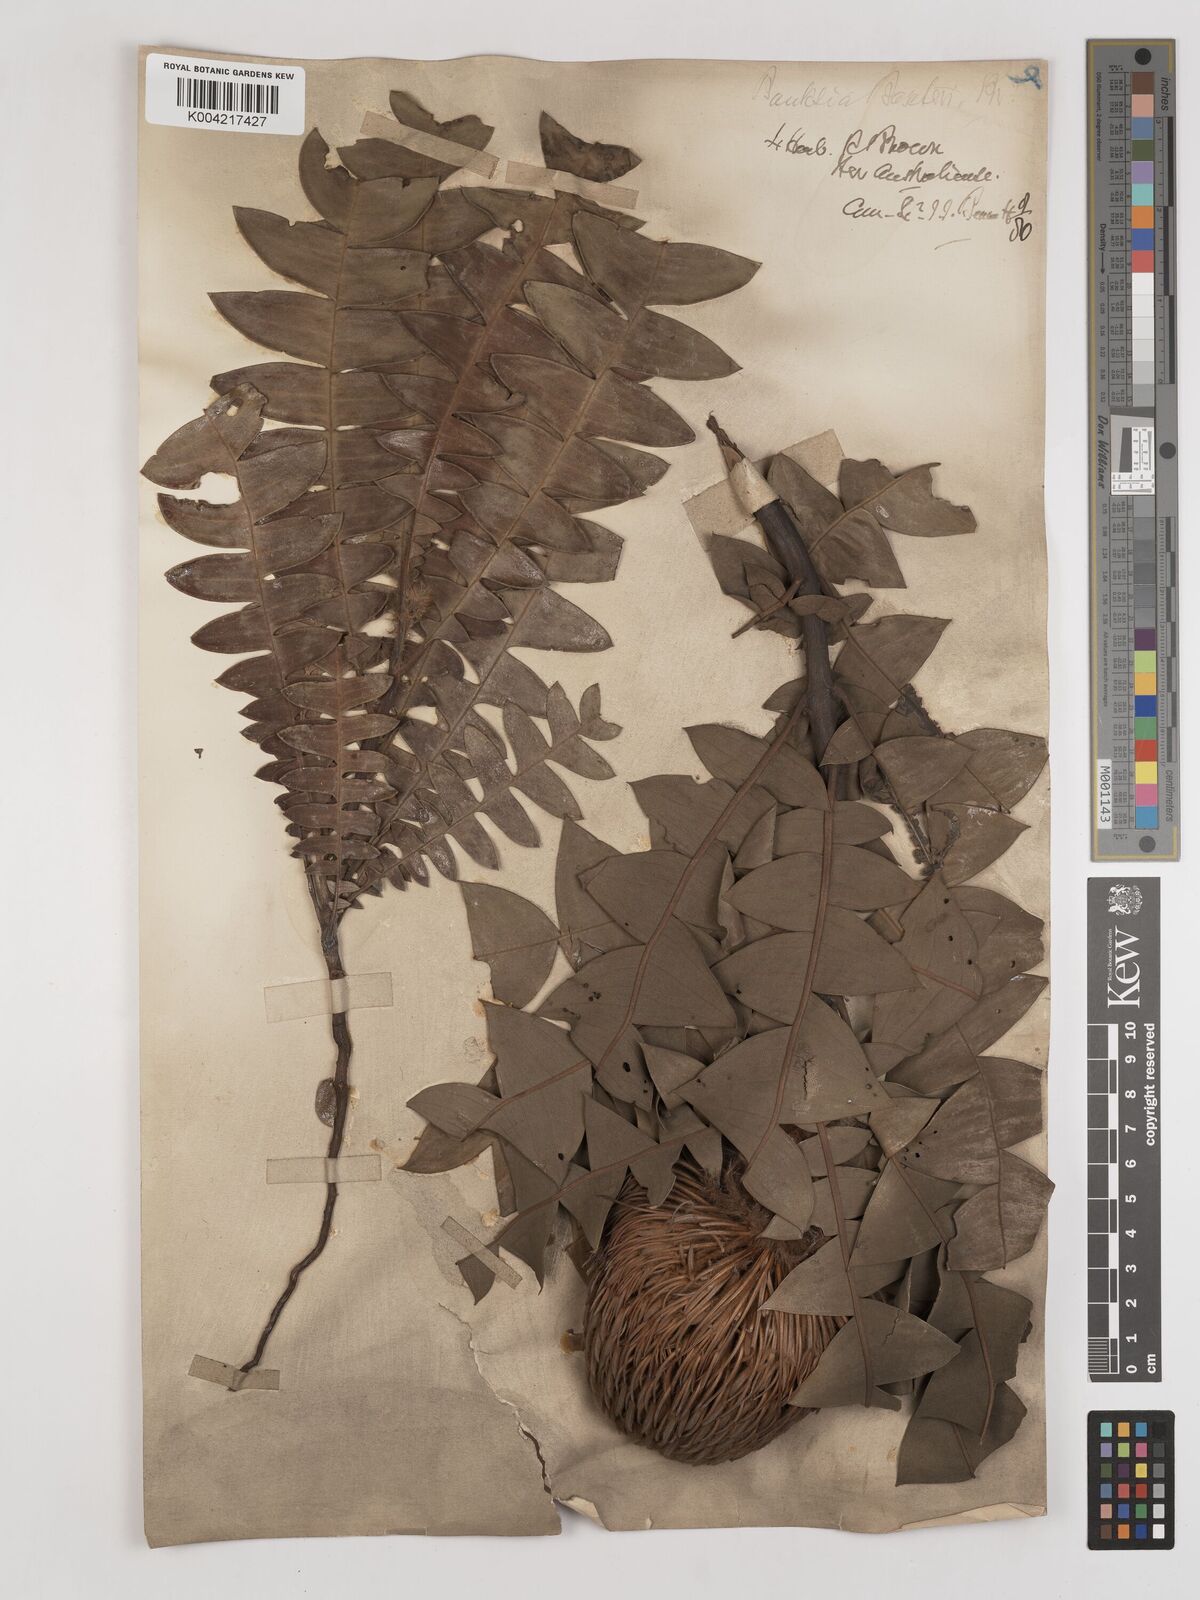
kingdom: Plantae
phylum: Tracheophyta
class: Magnoliopsida
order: Proteales
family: Proteaceae
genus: Banksia
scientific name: Banksia
